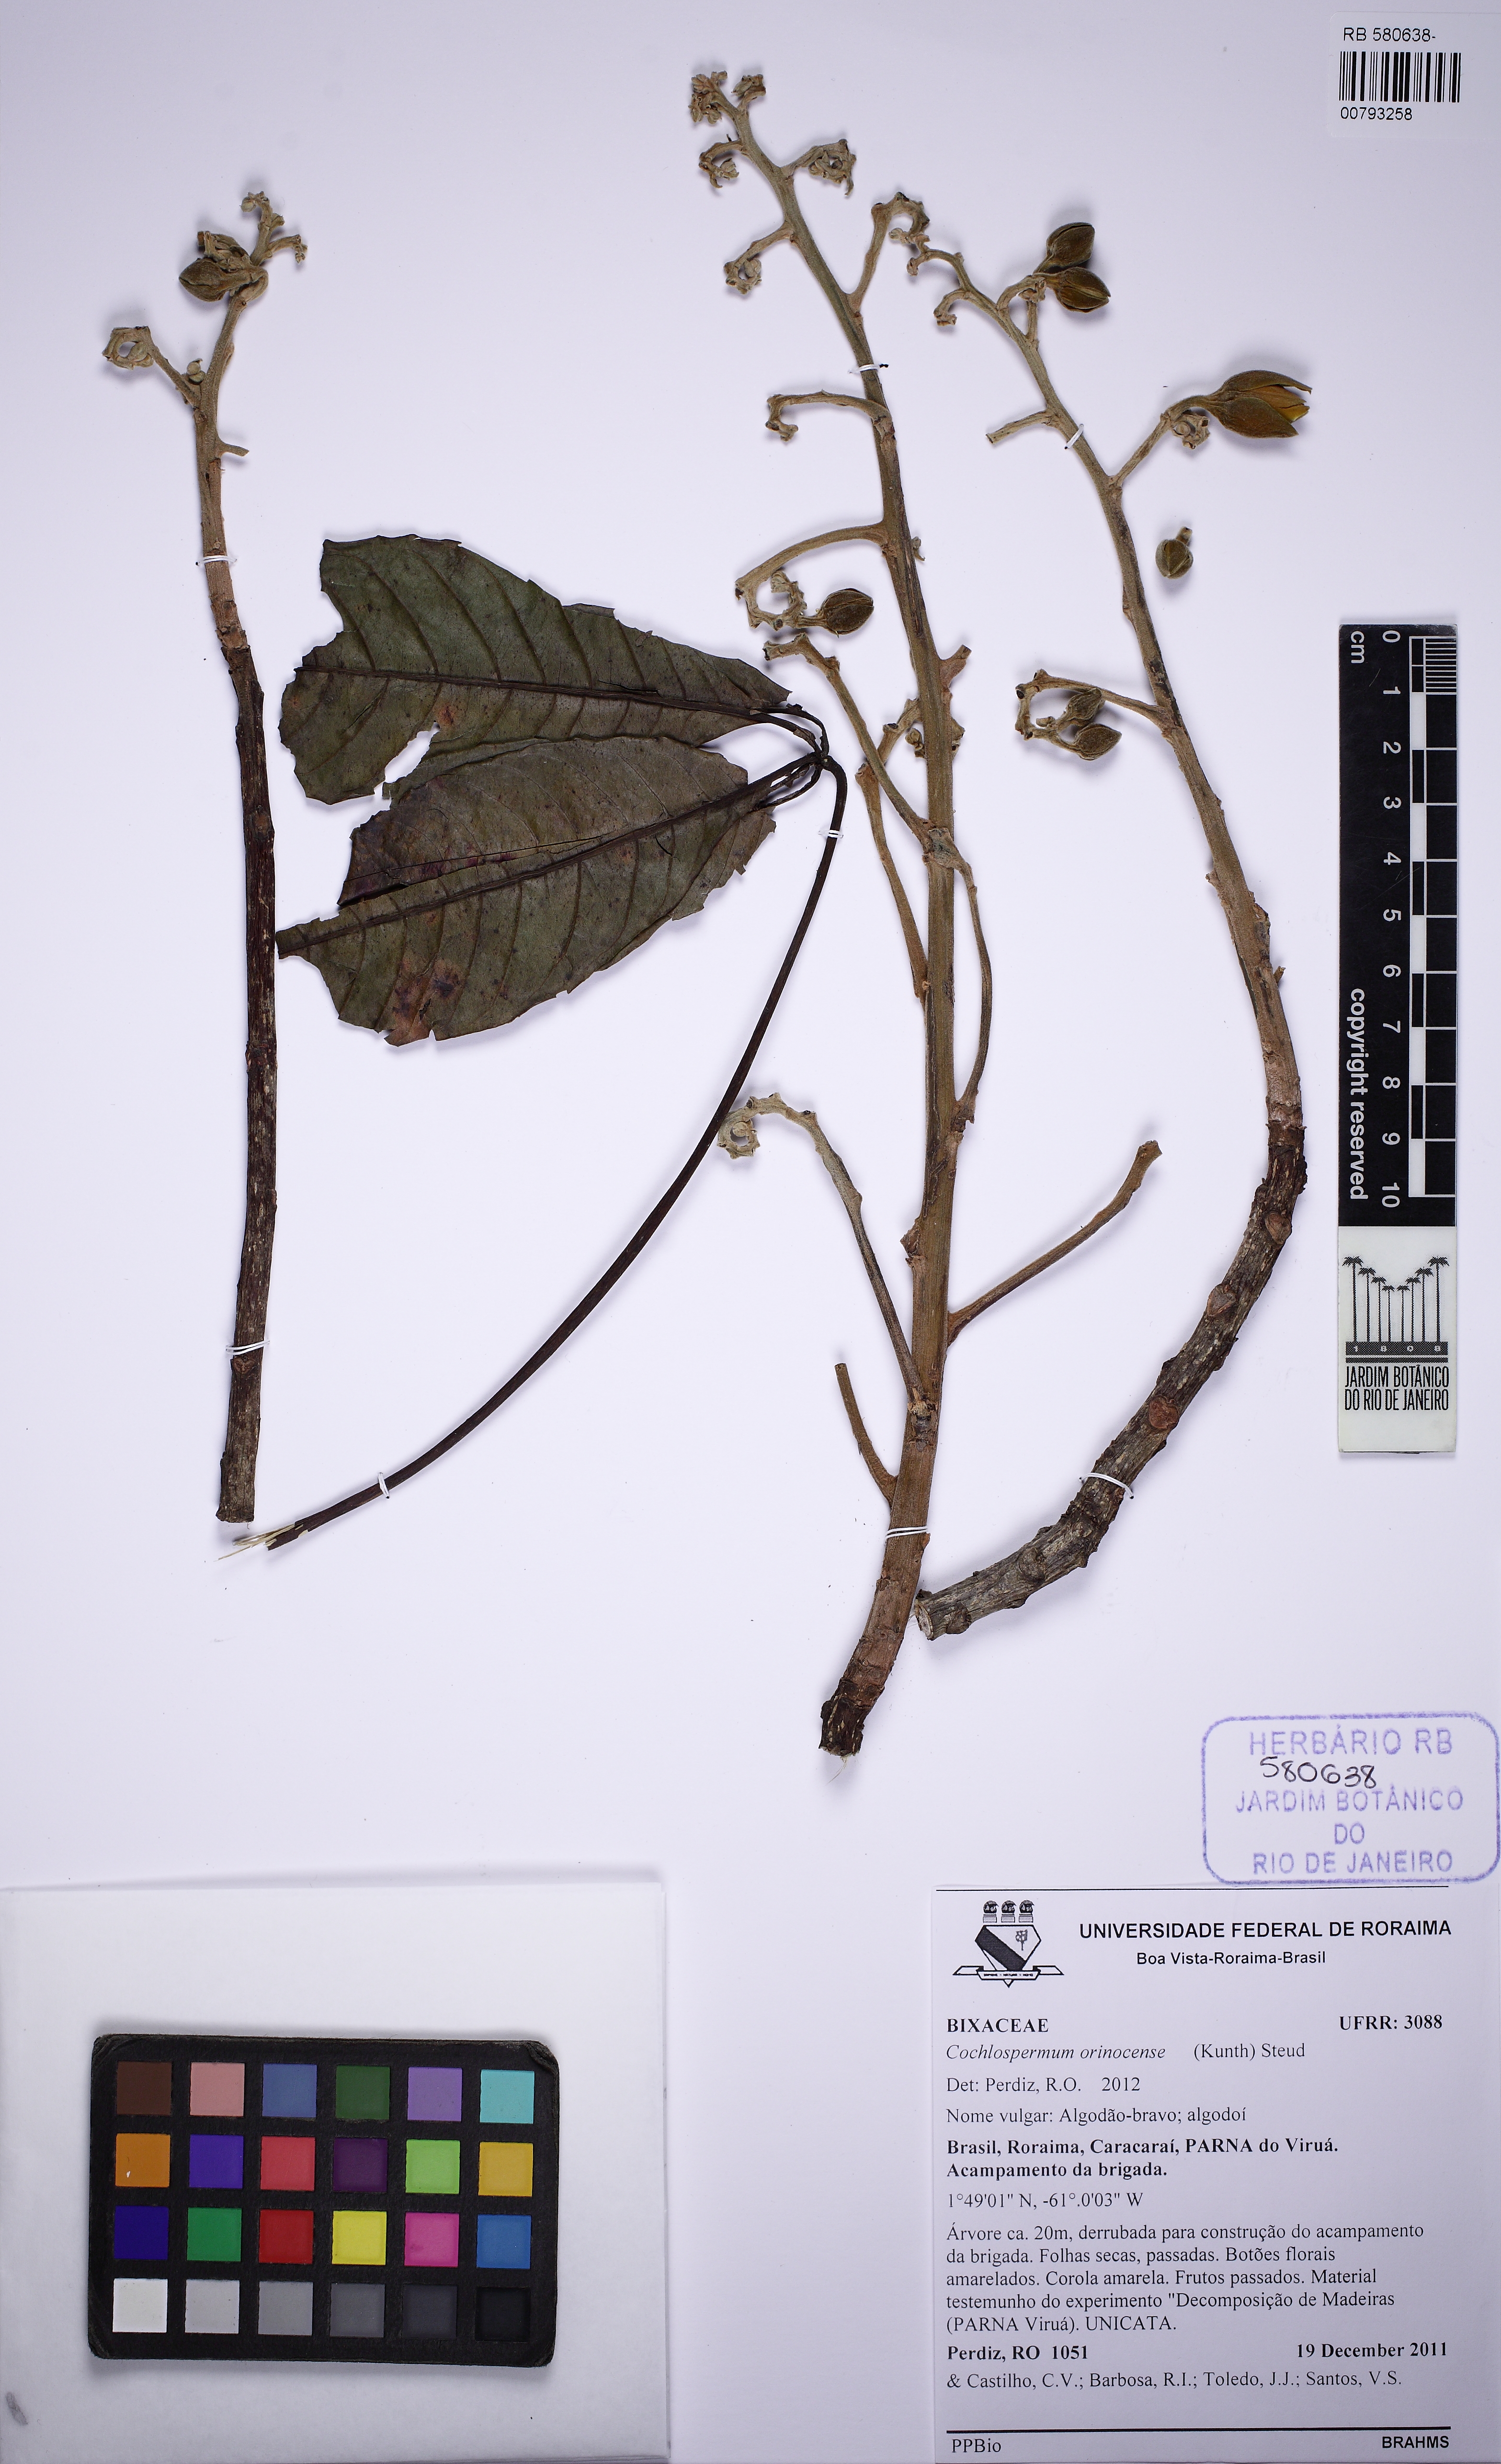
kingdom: Plantae
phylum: Tracheophyta
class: Magnoliopsida
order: Malvales
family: Cochlospermaceae
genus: Cochlospermum
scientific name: Cochlospermum orinocense
